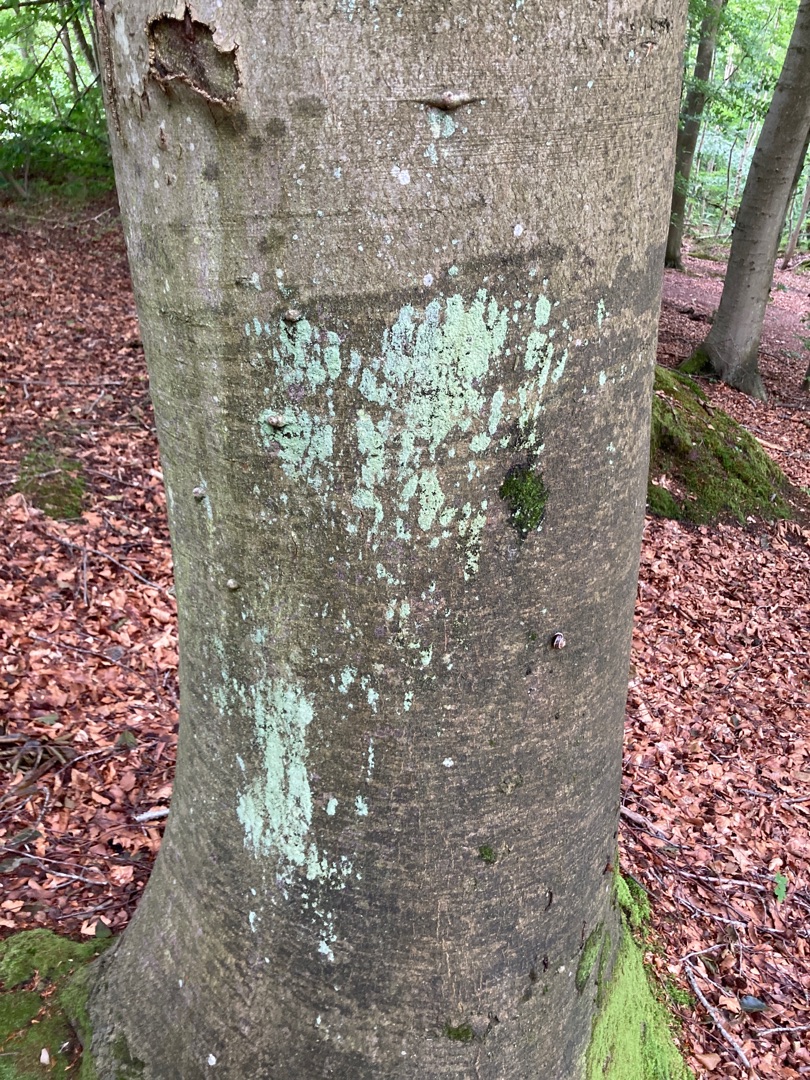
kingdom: Fungi
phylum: Ascomycota
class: Lecanoromycetes
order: Lecanorales
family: Stereocaulaceae
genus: Lepraria
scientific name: Lepraria
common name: Støvlav
